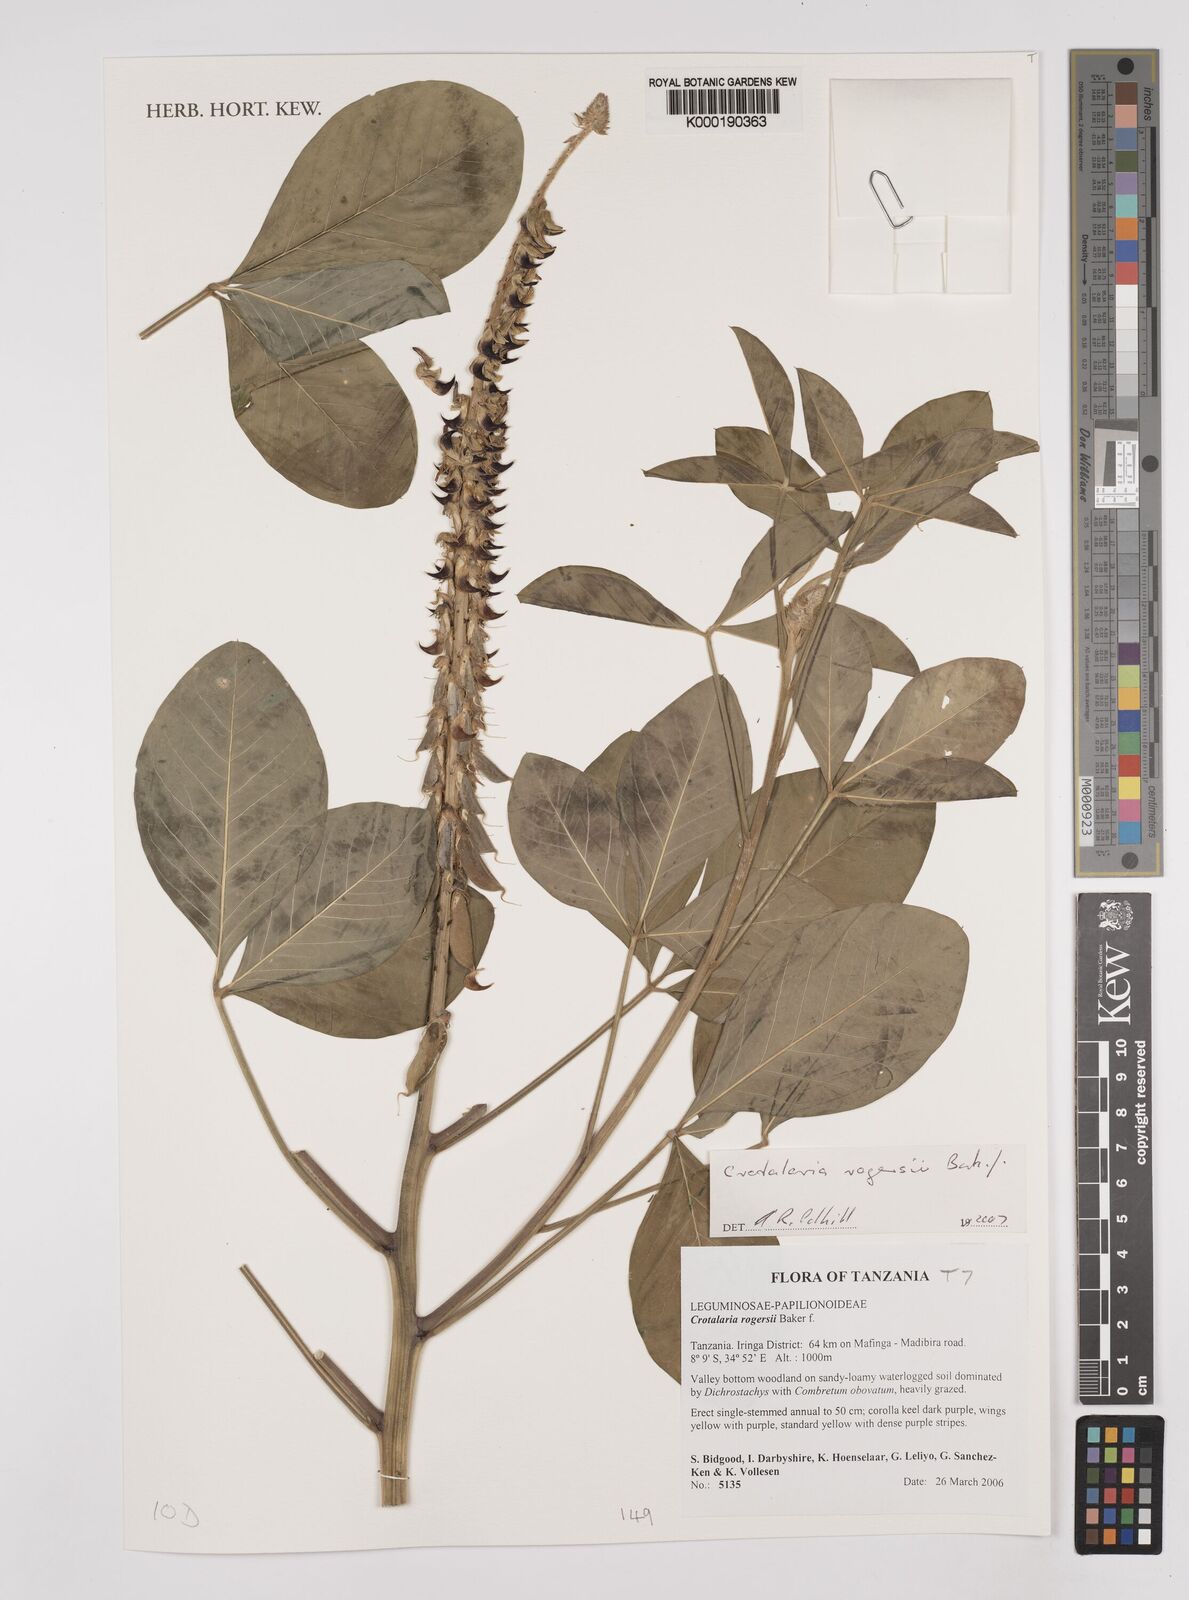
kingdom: Plantae
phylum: Tracheophyta
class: Magnoliopsida
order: Fabales
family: Fabaceae
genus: Crotalaria
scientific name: Crotalaria rogersii
